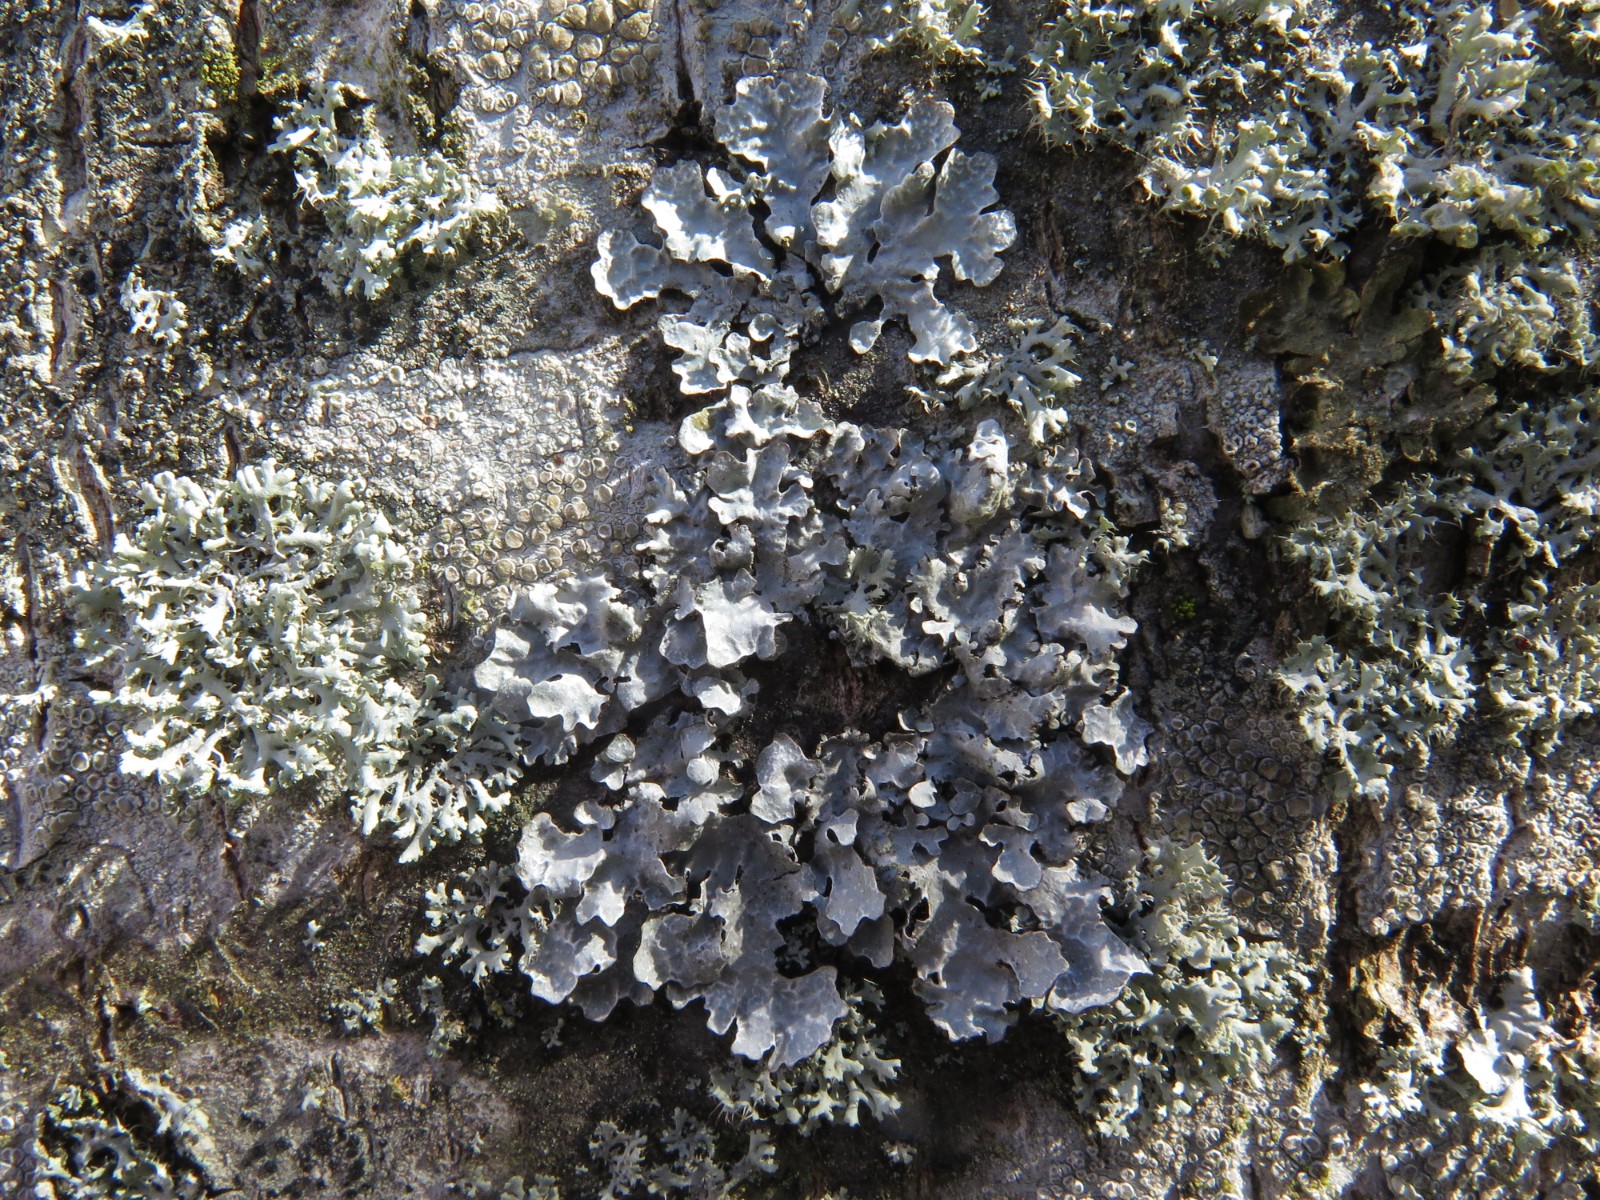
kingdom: Fungi
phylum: Ascomycota
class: Lecanoromycetes
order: Lecanorales
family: Parmeliaceae
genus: Parmelia
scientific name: Parmelia sulcata
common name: rynket skållav
